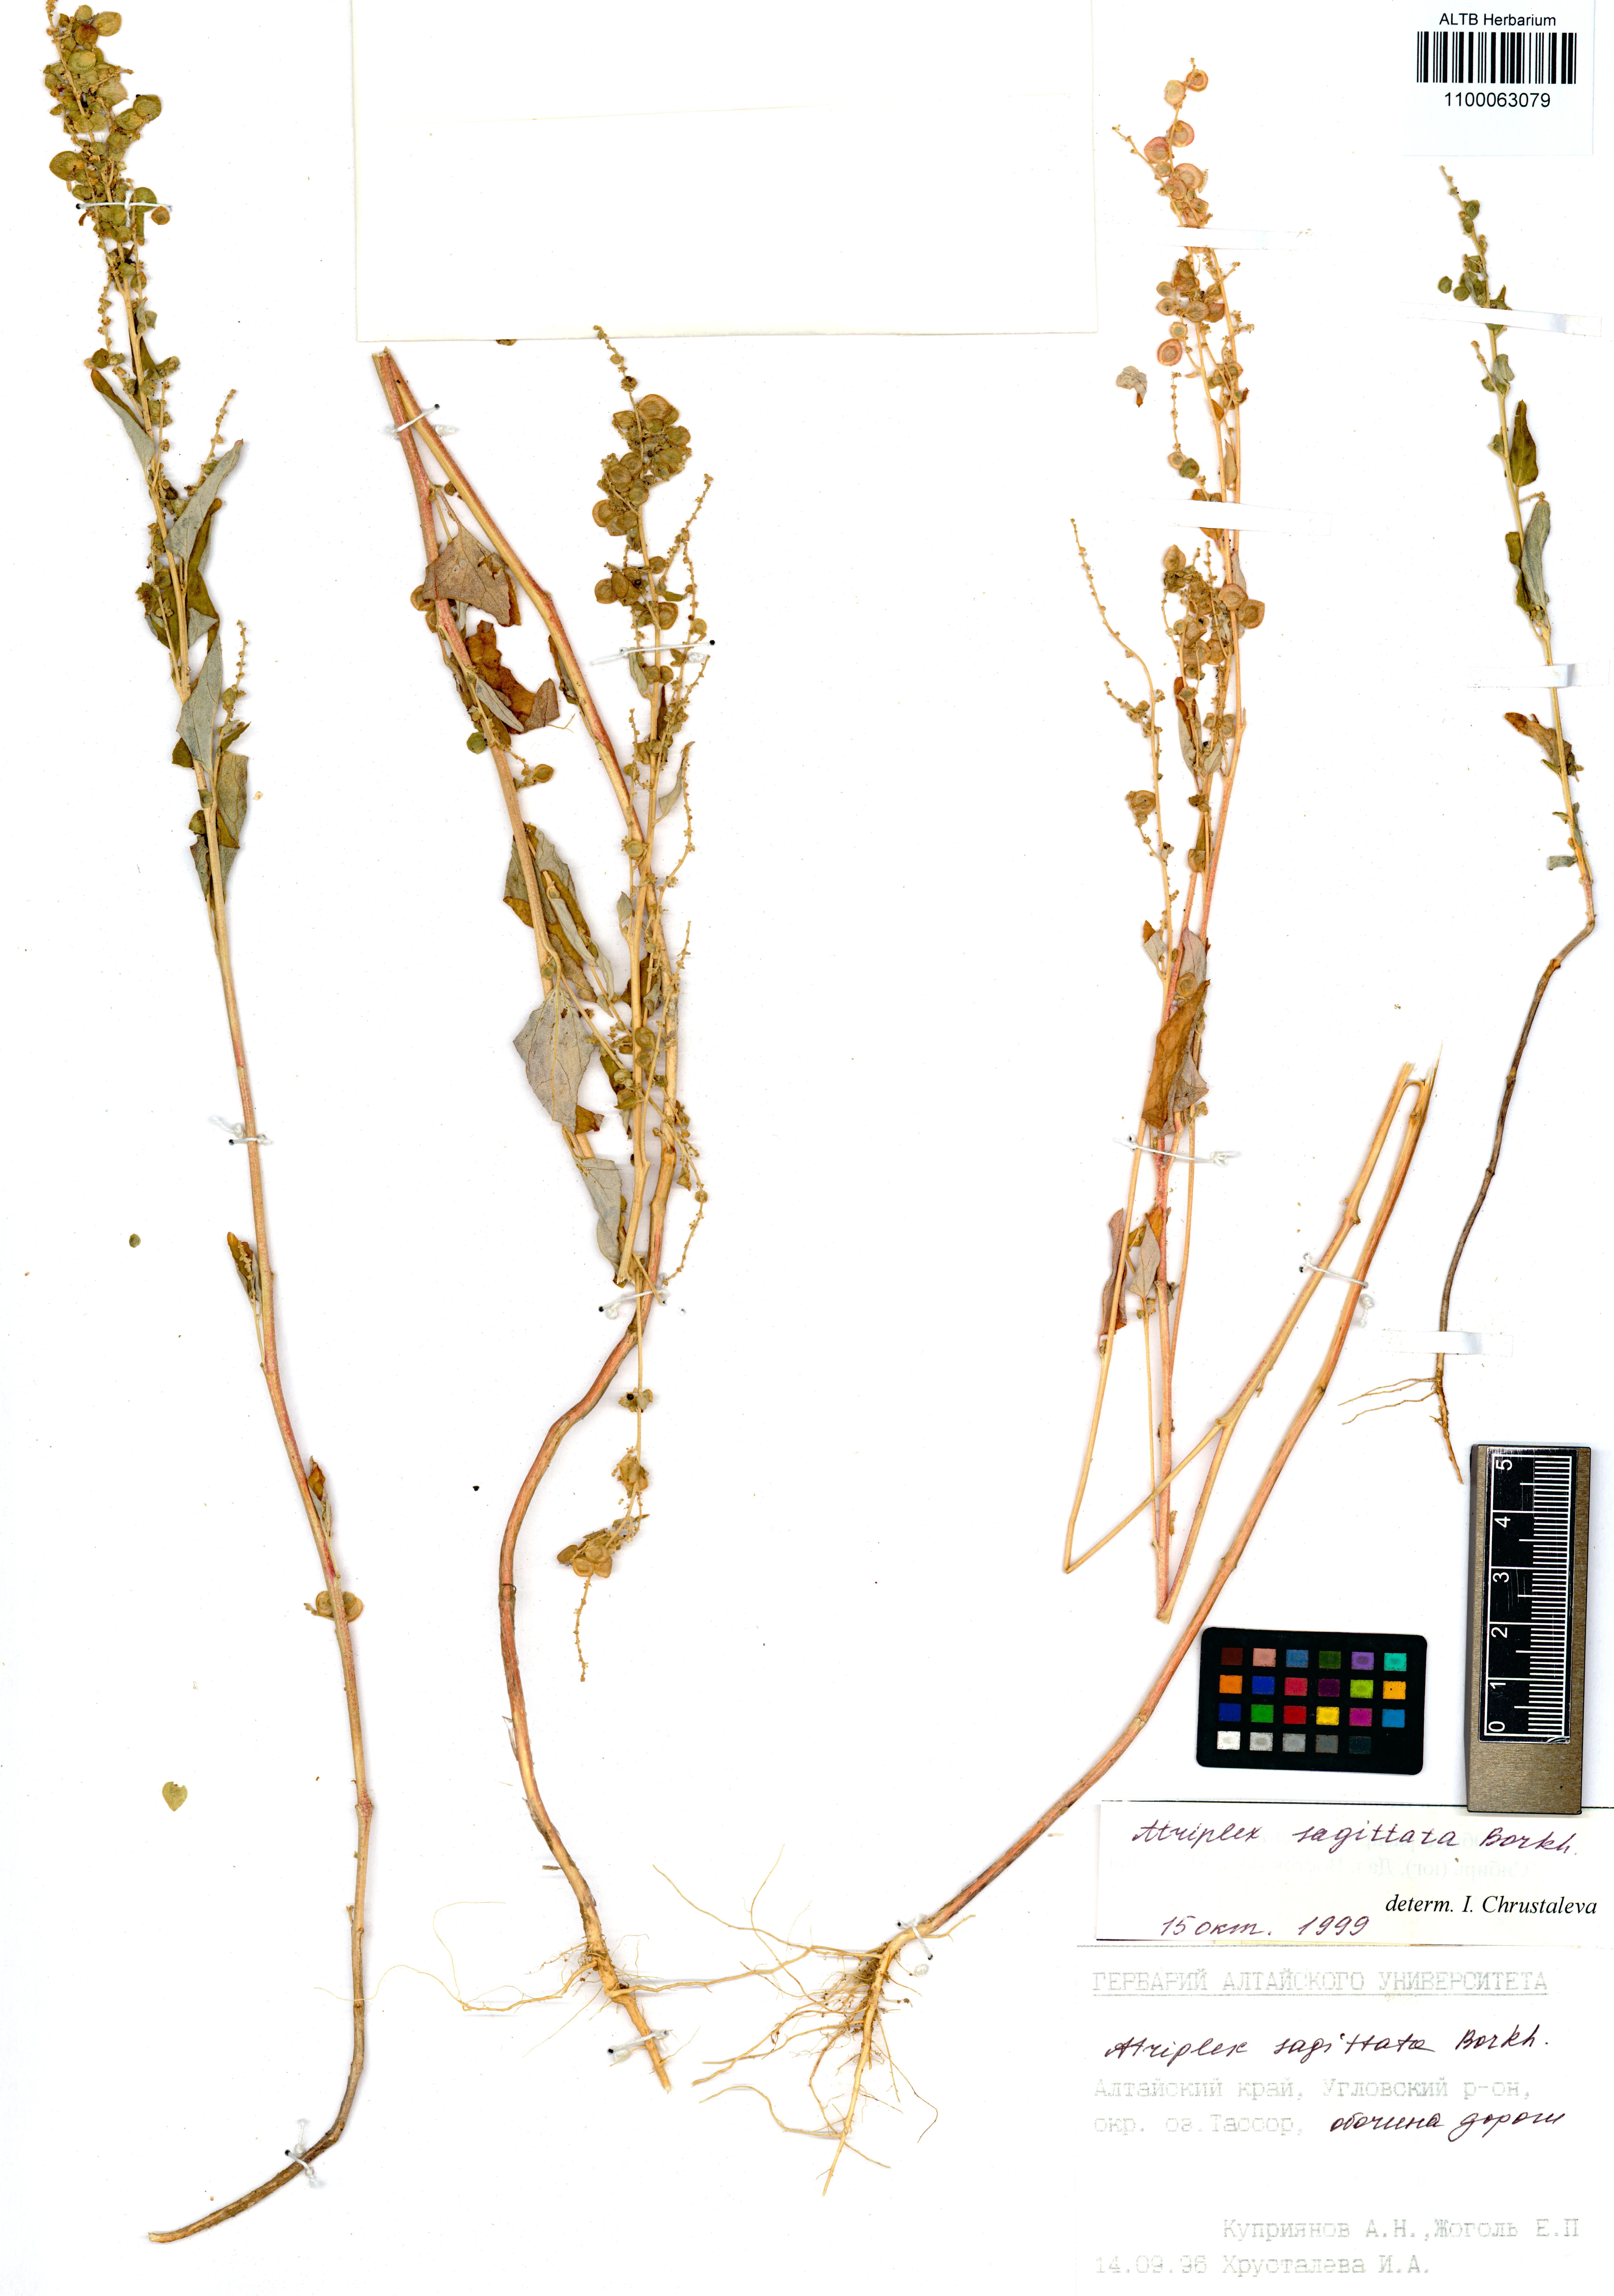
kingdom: Plantae
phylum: Tracheophyta
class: Magnoliopsida
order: Caryophyllales
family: Amaranthaceae
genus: Atriplex
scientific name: Atriplex sagittata
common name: Purple orache
